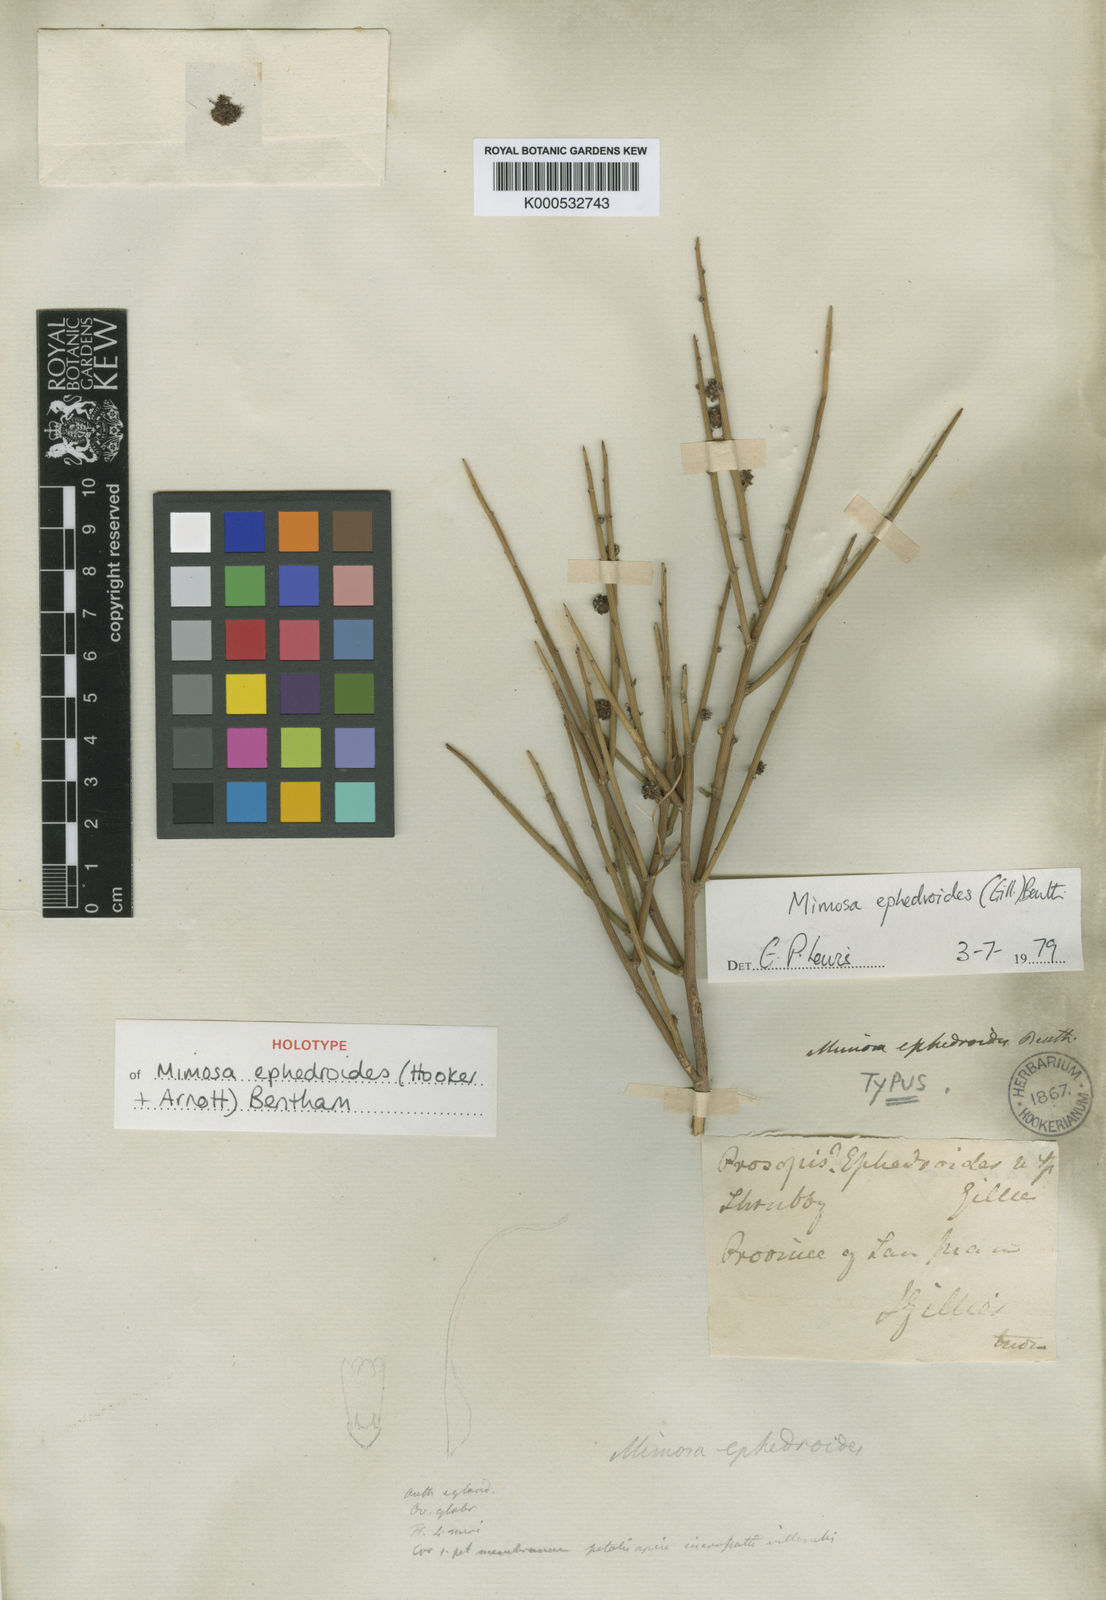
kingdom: Plantae
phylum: Tracheophyta
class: Magnoliopsida
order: Fabales
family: Fabaceae
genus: Mimosa
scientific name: Mimosa ephedroides
